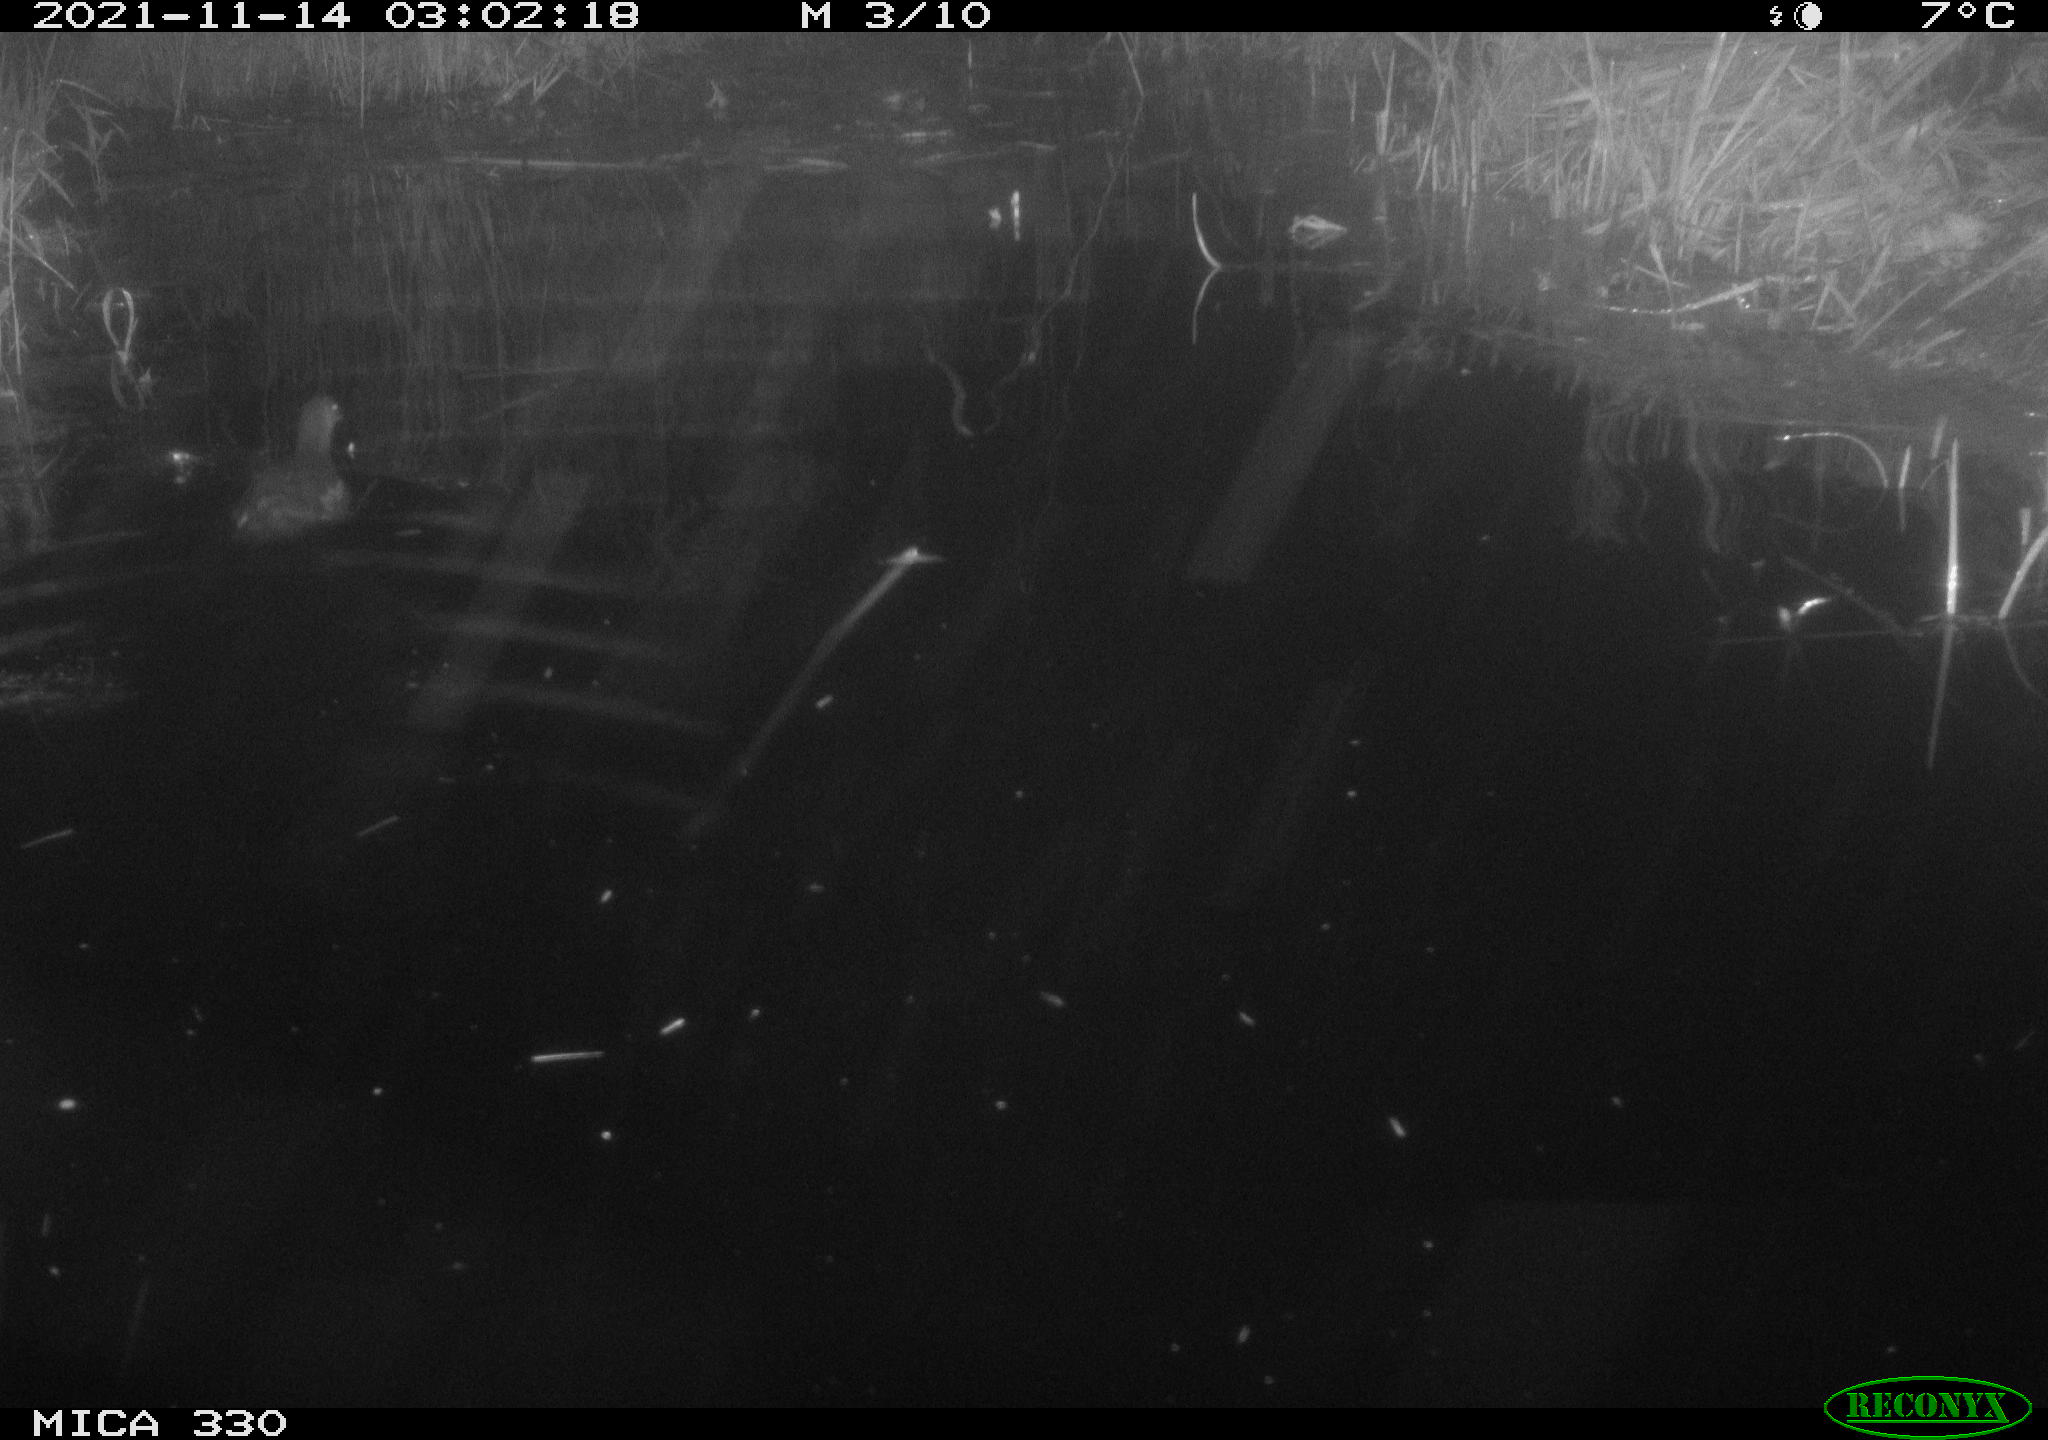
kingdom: Animalia
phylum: Chordata
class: Aves
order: Gruiformes
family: Rallidae
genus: Gallinula
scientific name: Gallinula chloropus
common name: Common moorhen
